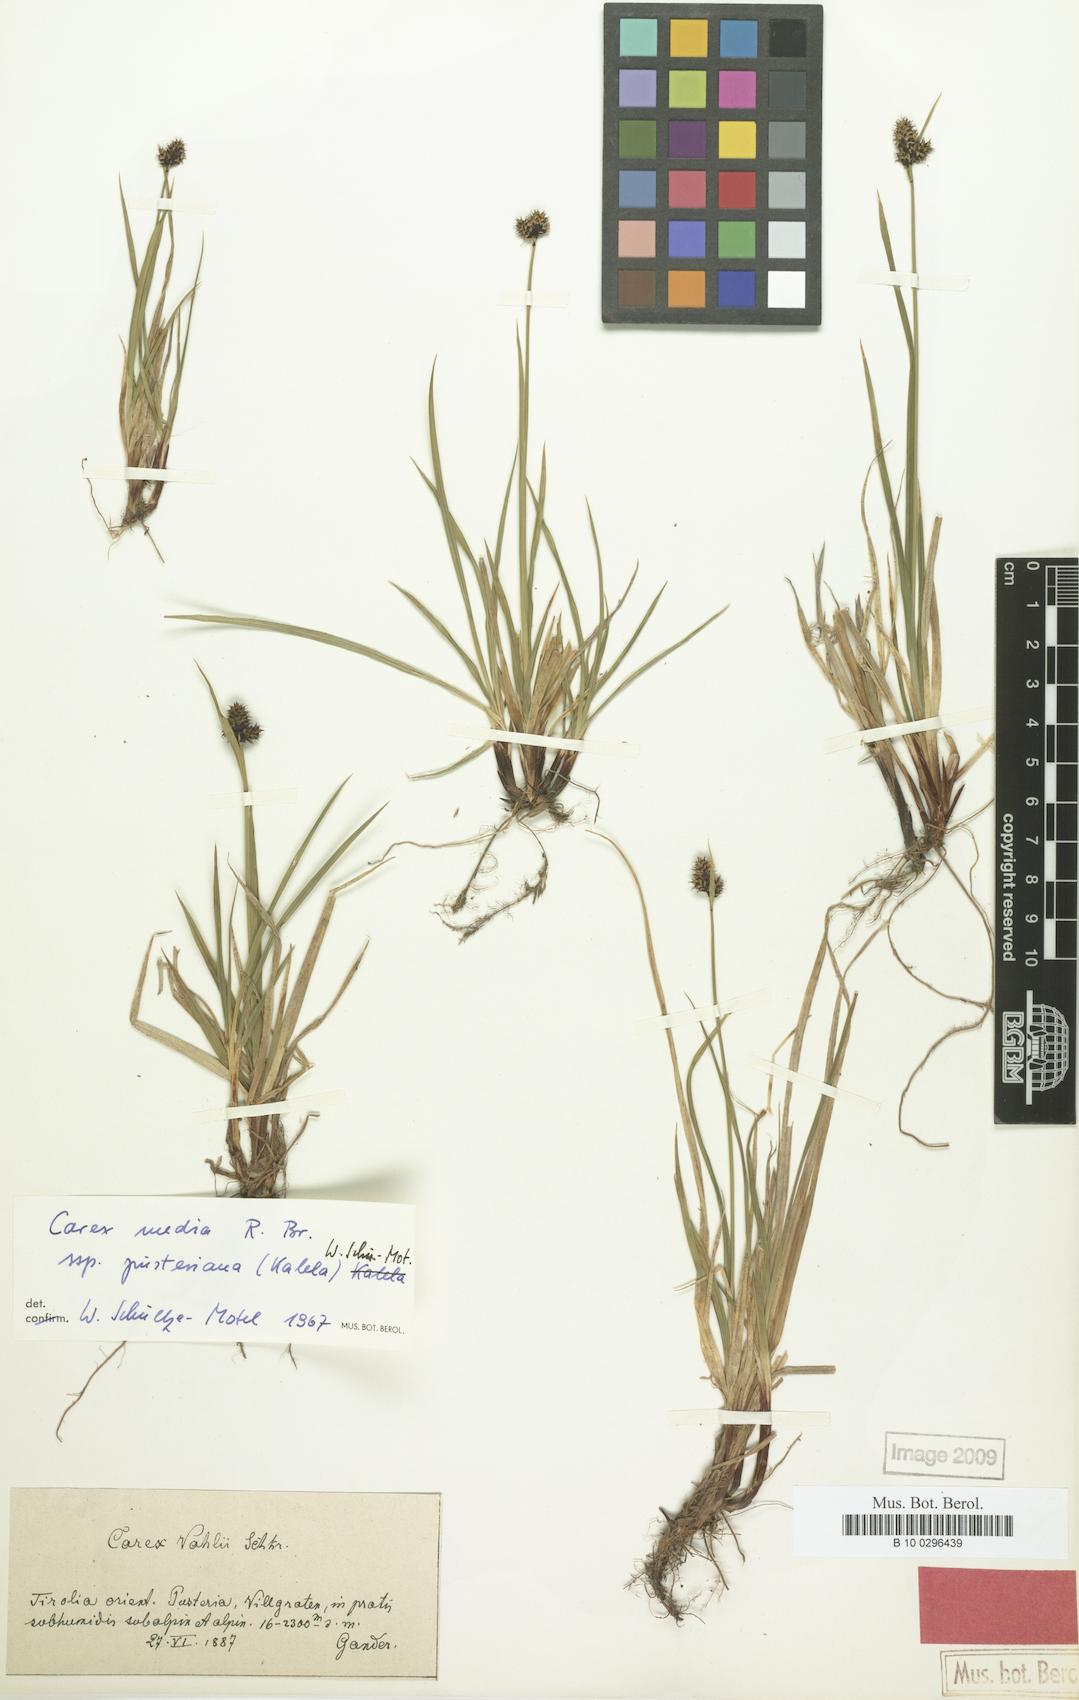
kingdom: Plantae
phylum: Tracheophyta
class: Liliopsida
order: Poales
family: Cyperaceae
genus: Carex
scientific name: Carex norvegica
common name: Close-headed alpine-sedge
